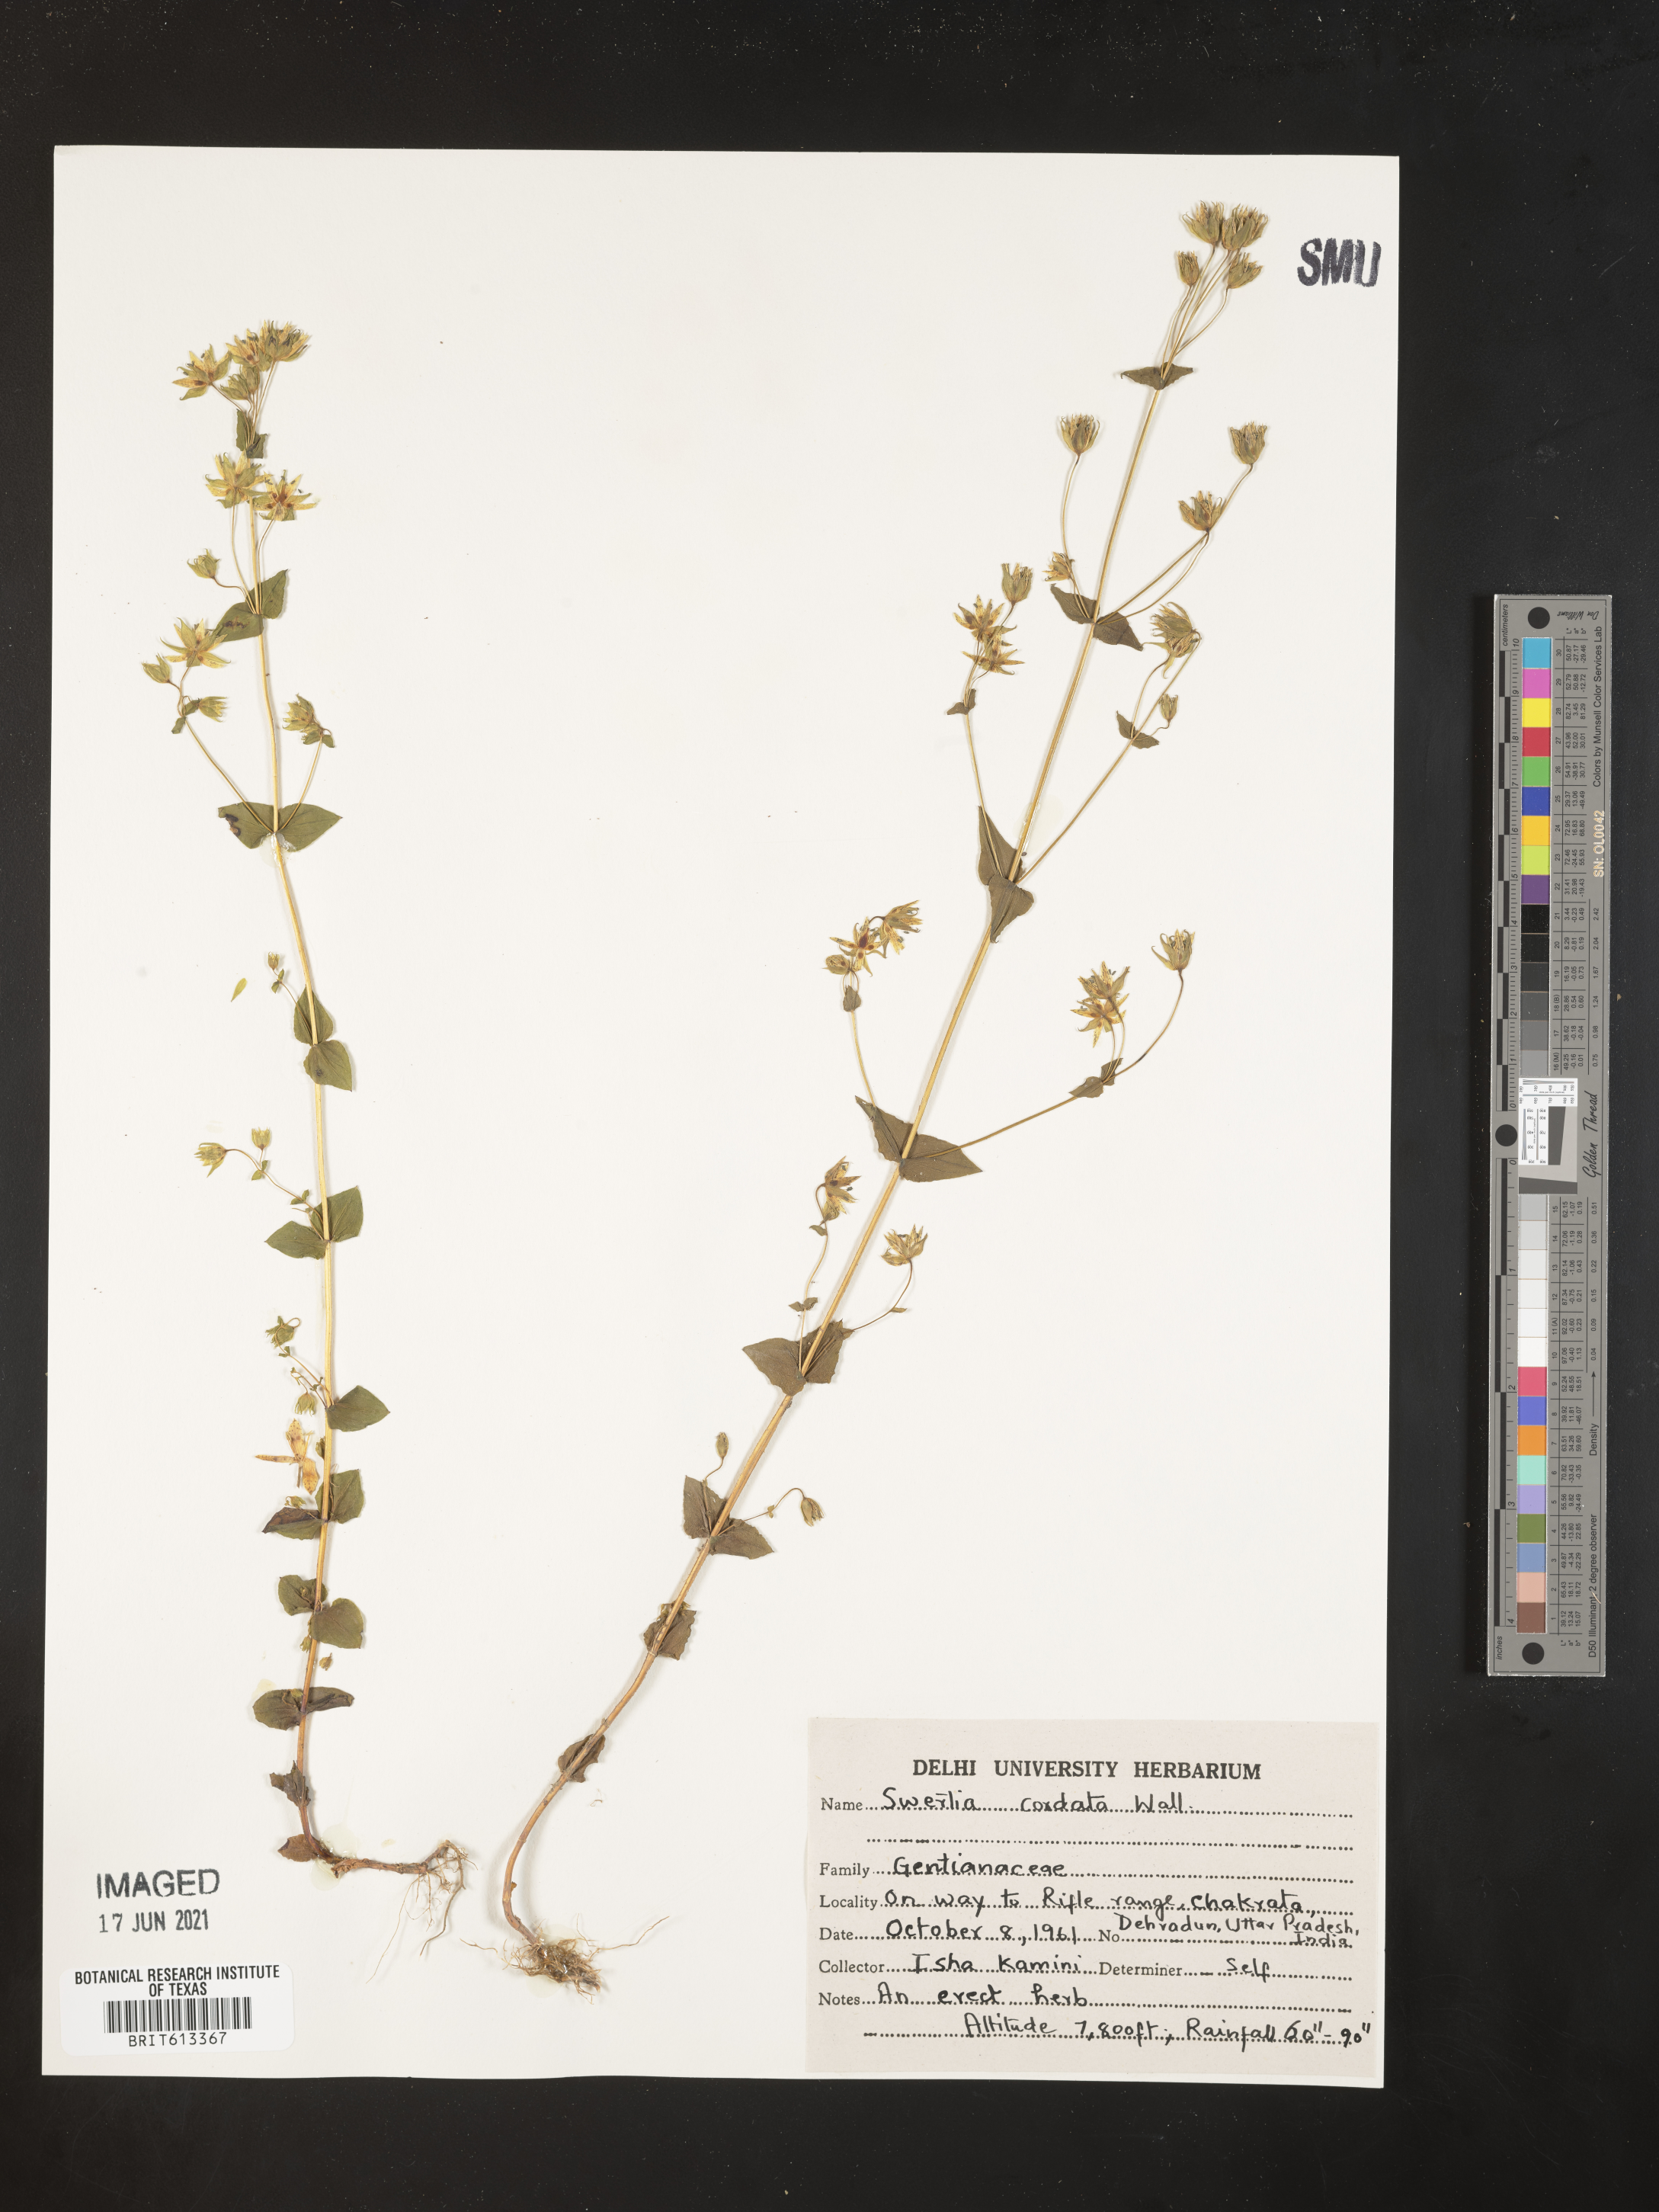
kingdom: Plantae
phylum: Tracheophyta
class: Magnoliopsida
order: Gentianales
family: Gentianaceae
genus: Swertia
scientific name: Swertia cordata
